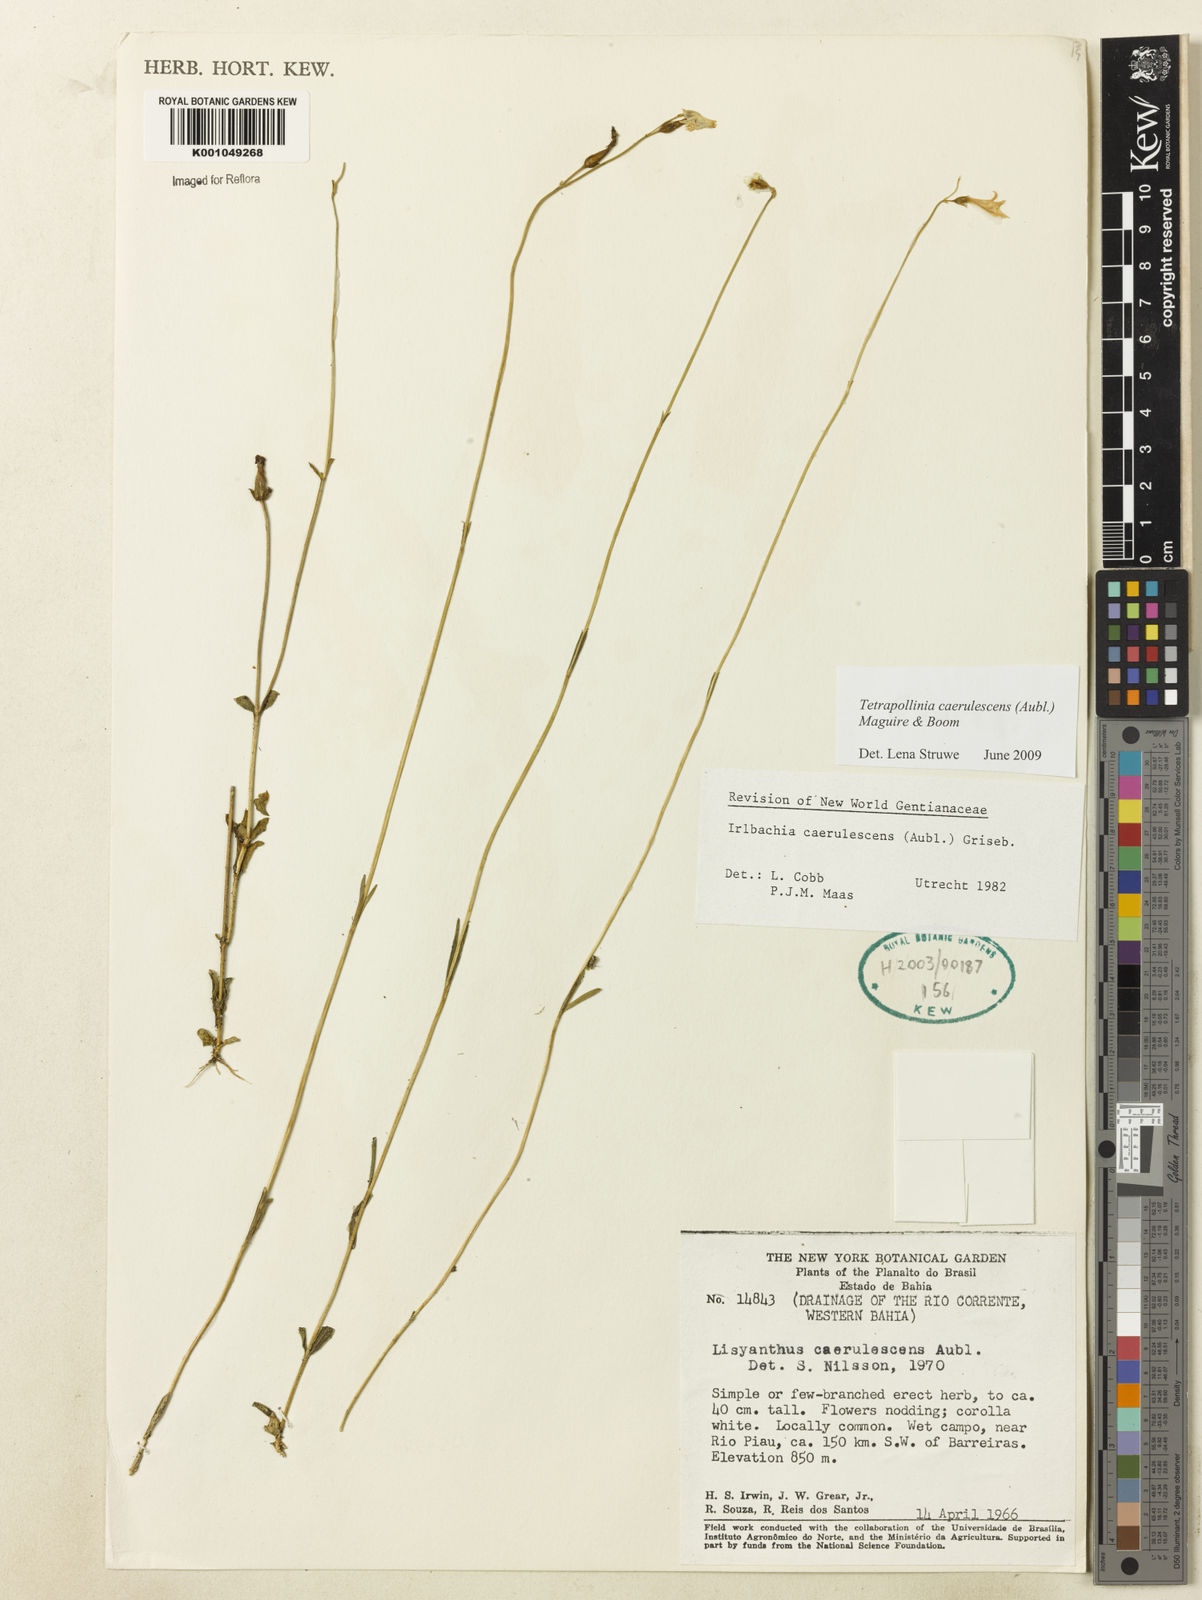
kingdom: Plantae
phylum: Tracheophyta
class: Magnoliopsida
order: Gentianales
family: Gentianaceae
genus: Tetrapollinia
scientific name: Tetrapollinia caerulescens
